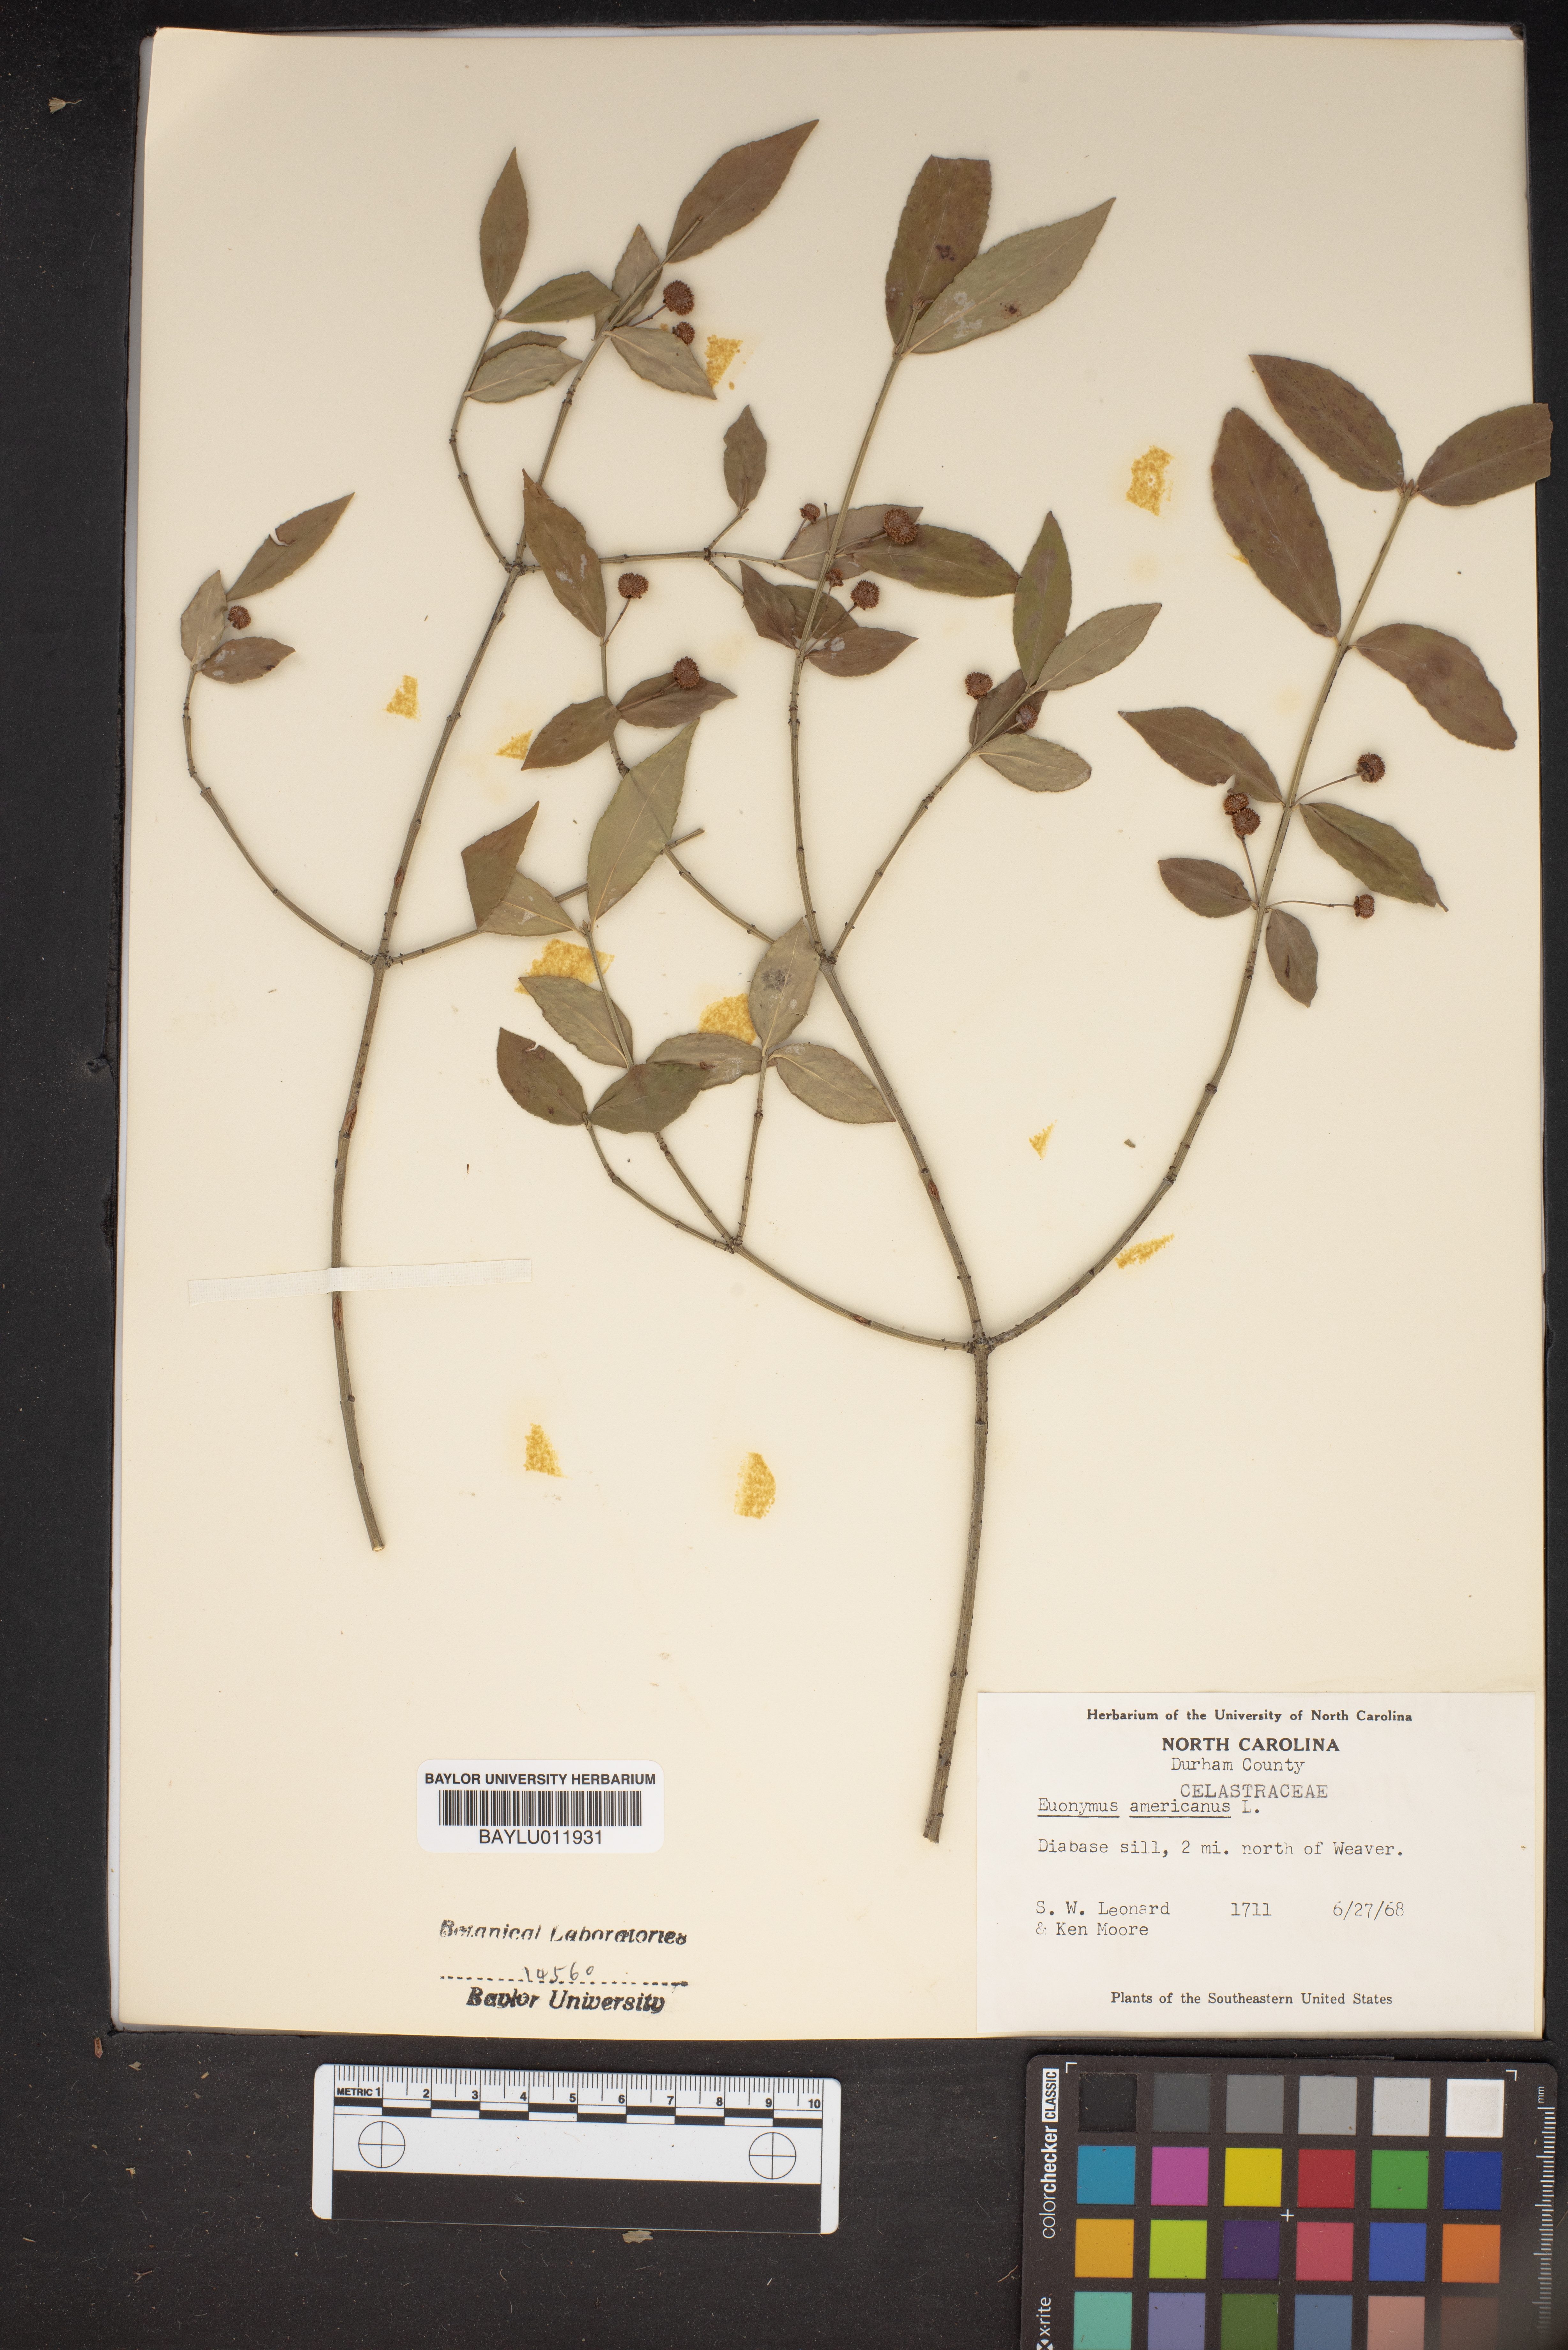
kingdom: Plantae
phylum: Tracheophyta
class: Magnoliopsida
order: Celastrales
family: Celastraceae
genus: Euonymus
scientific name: Euonymus americanus
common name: Bursting-heart
